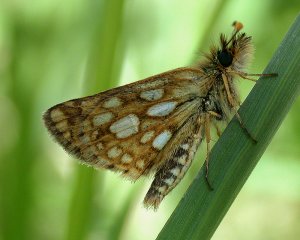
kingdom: Animalia
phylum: Arthropoda
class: Insecta
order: Lepidoptera
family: Hesperiidae
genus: Carterocephalus
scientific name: Carterocephalus palaemon
